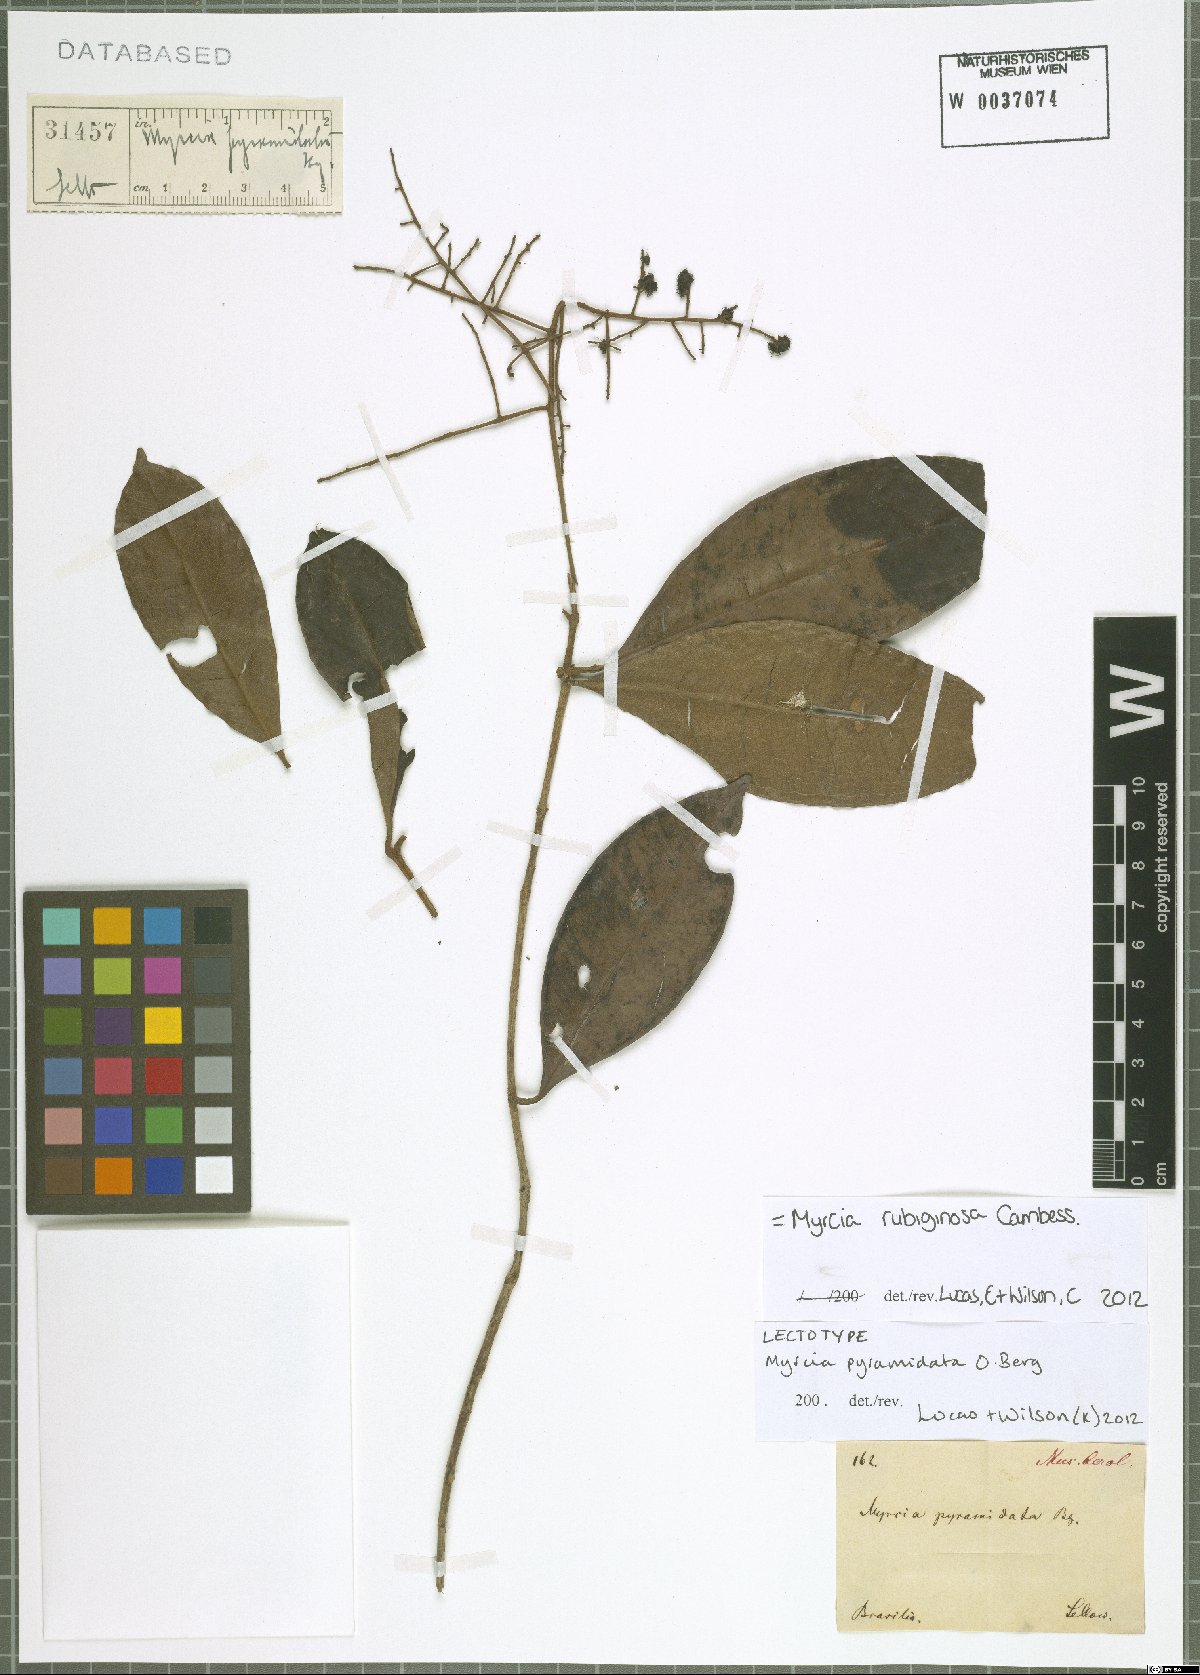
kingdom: Plantae
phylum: Tracheophyta
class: Magnoliopsida
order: Myrtales
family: Myrtaceae
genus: Myrcia
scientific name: Myrcia rubiginosa
